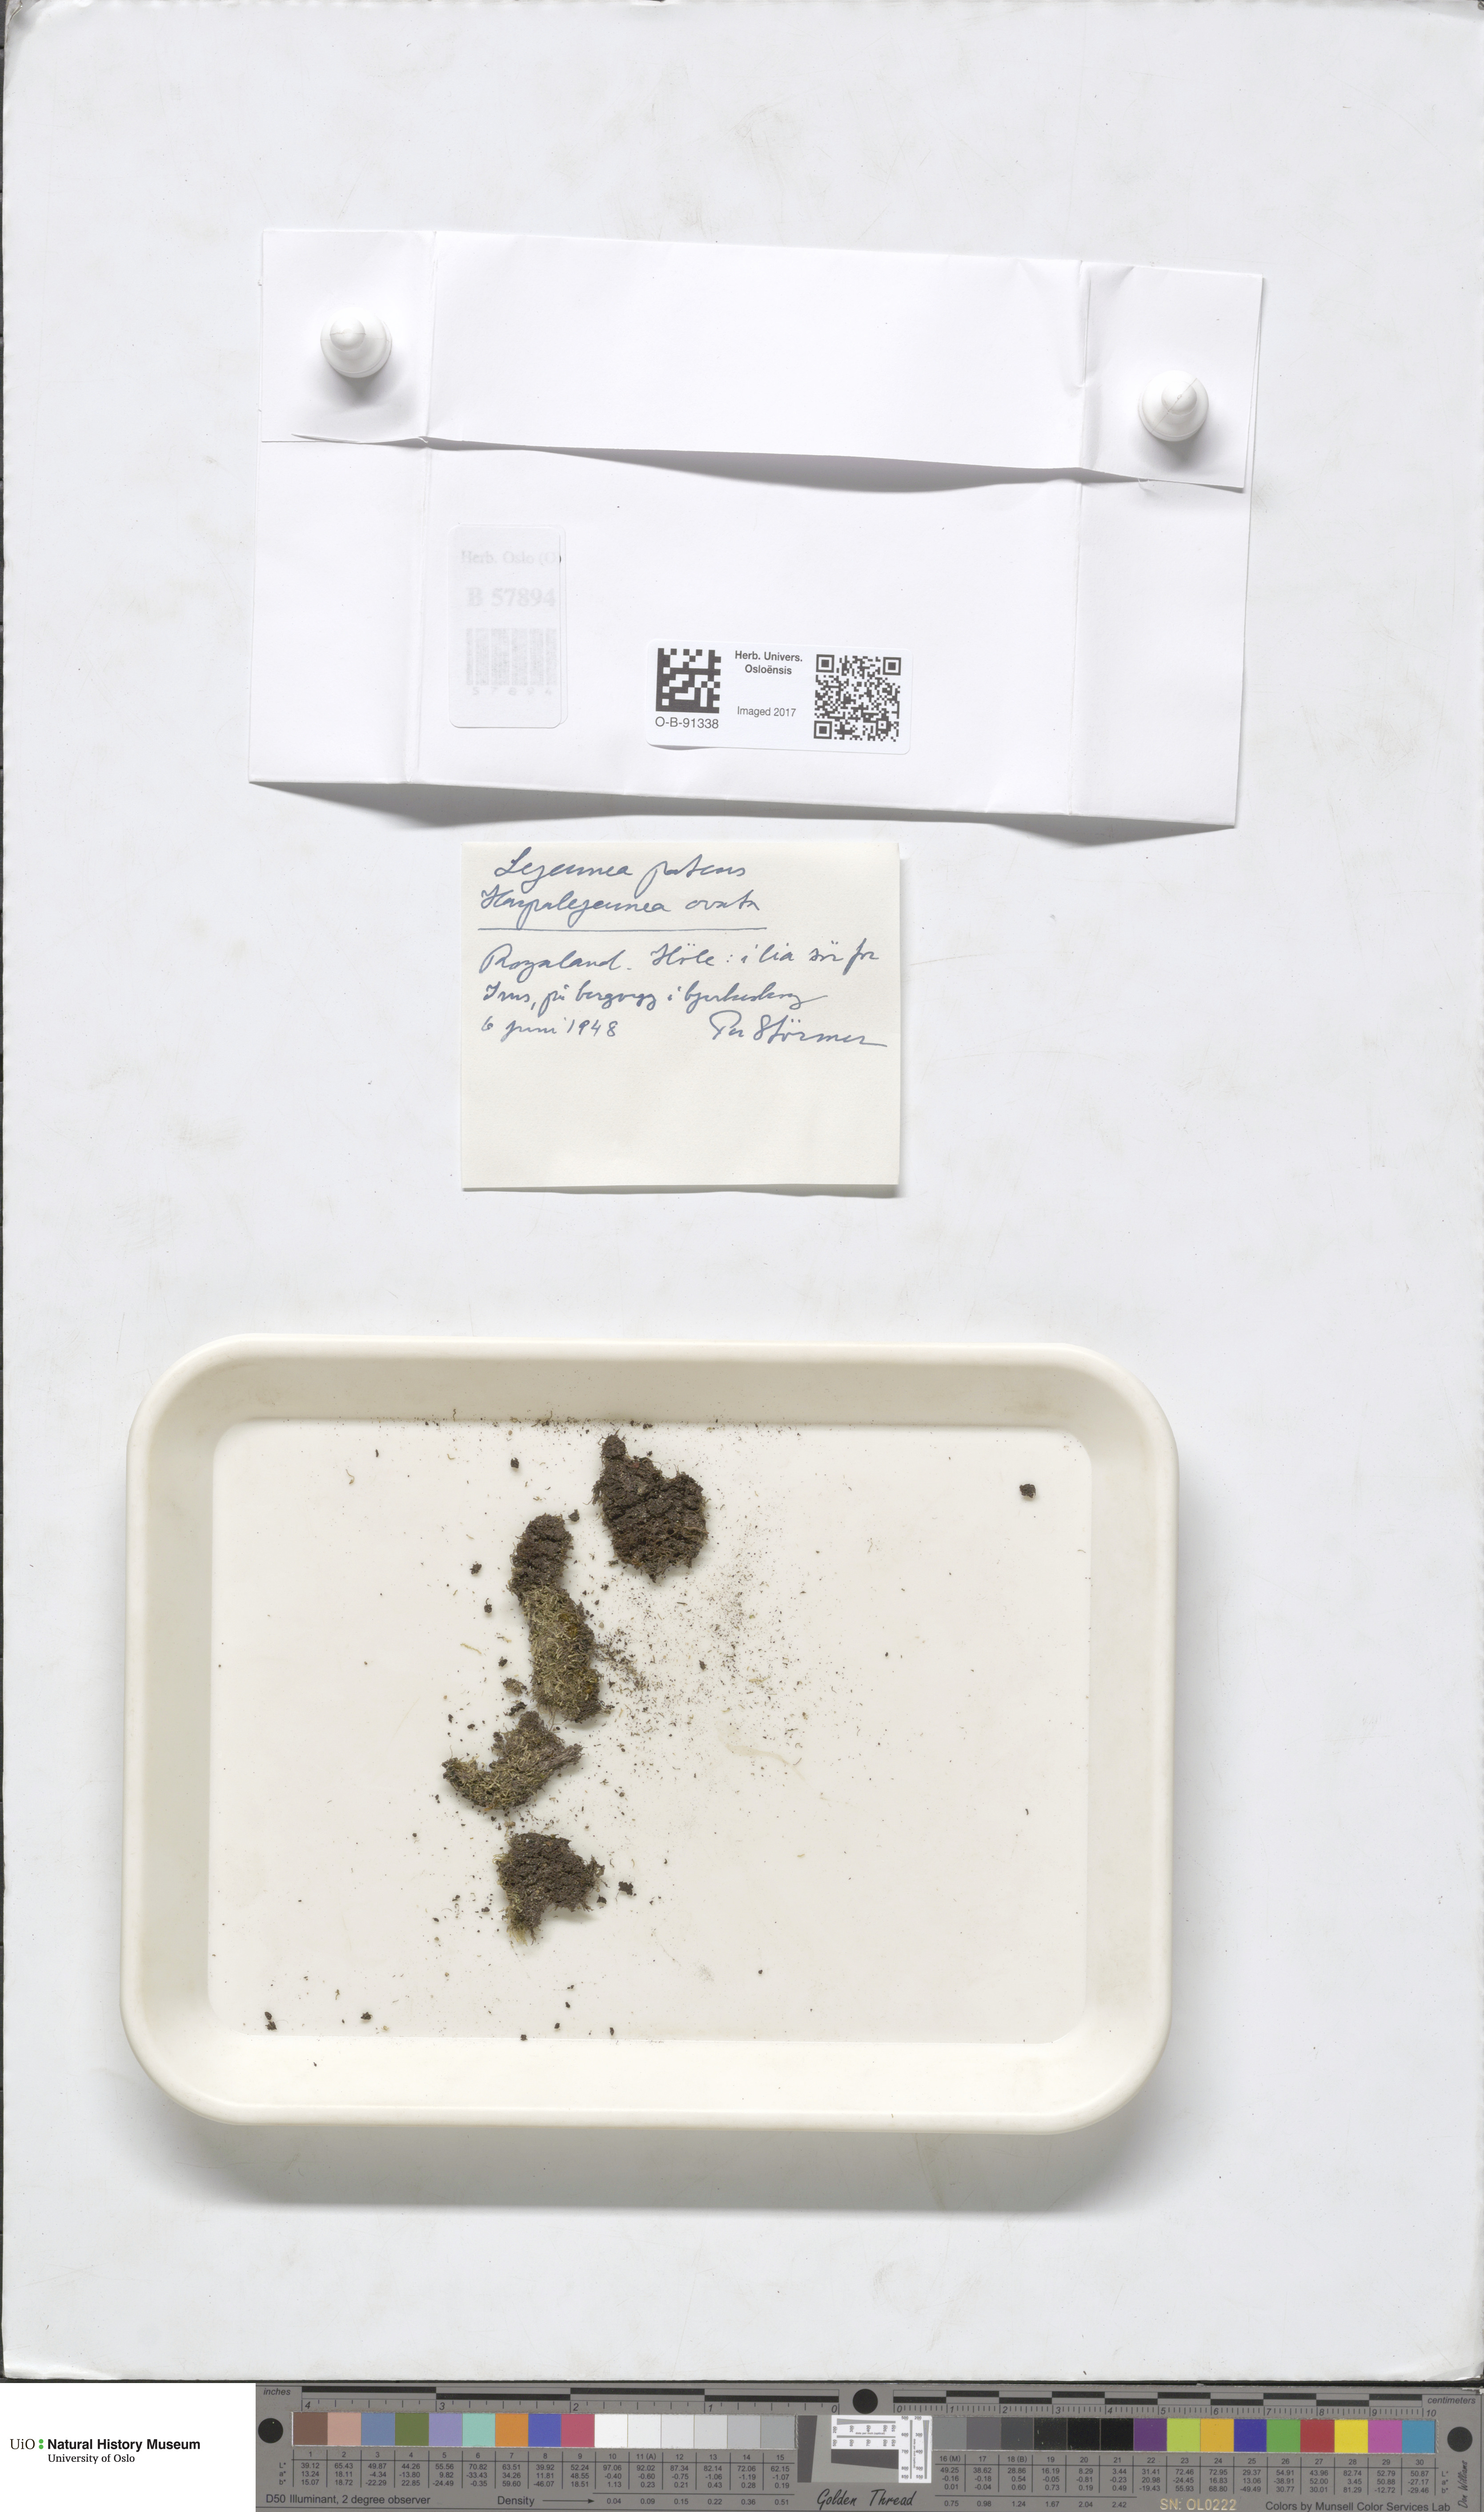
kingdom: Plantae
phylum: Marchantiophyta
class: Jungermanniopsida
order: Porellales
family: Lejeuneaceae
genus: Lejeunea
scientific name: Lejeunea patens
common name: Pearl pouncewort
